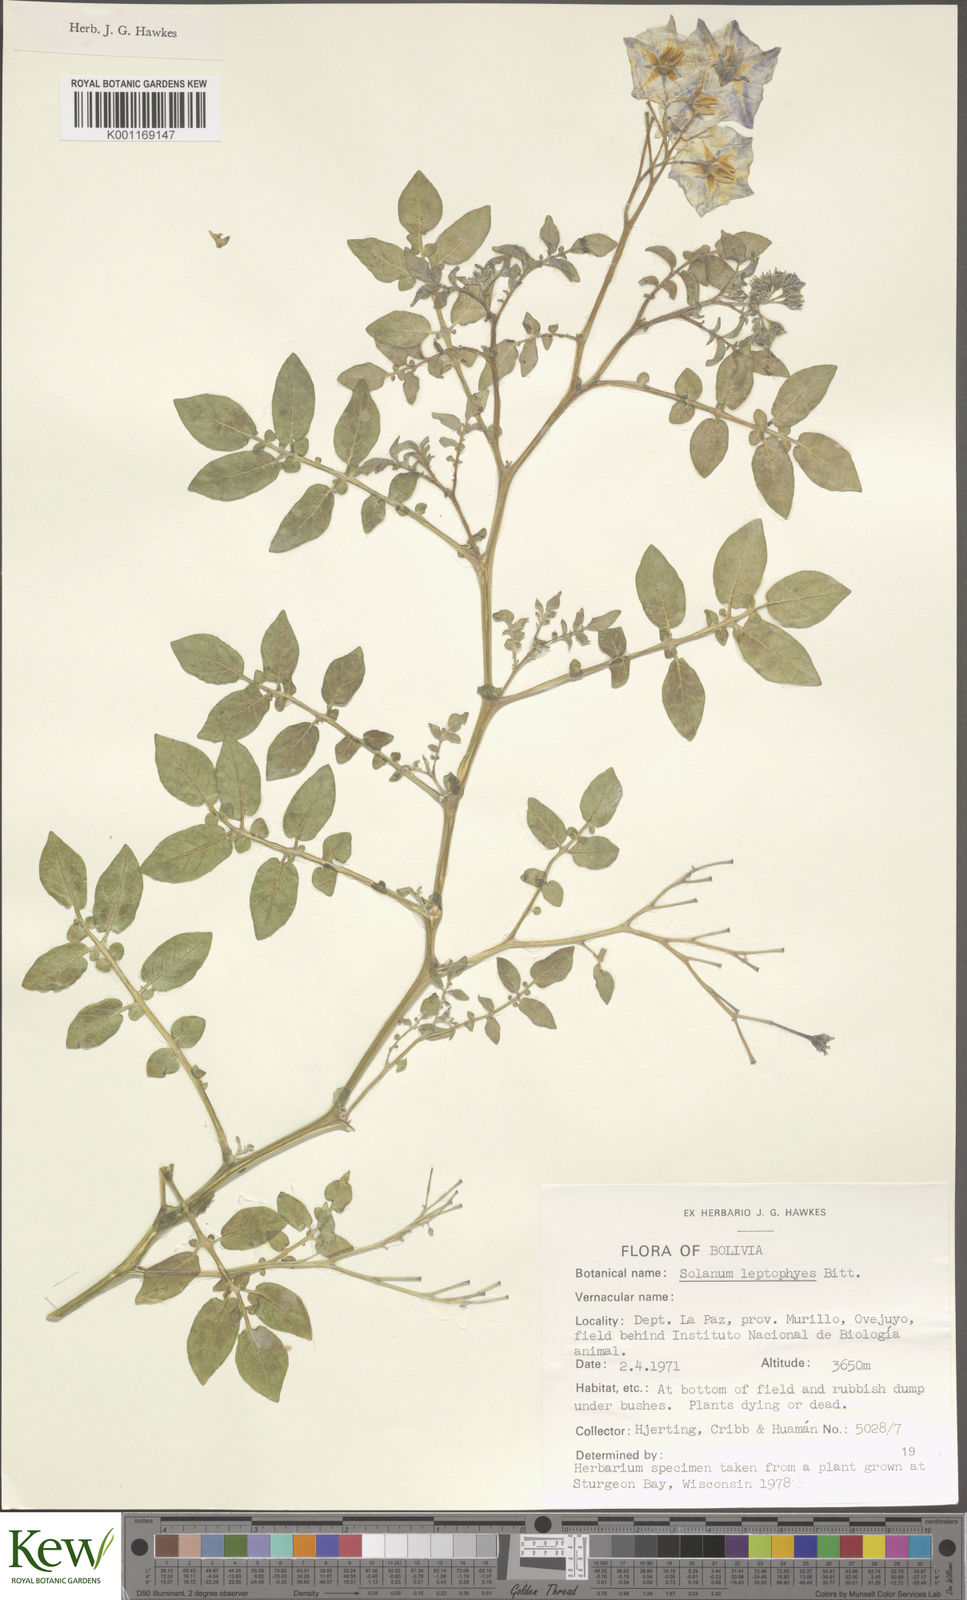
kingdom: Plantae
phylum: Tracheophyta
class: Magnoliopsida
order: Solanales
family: Solanaceae
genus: Solanum
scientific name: Solanum brevicaule
